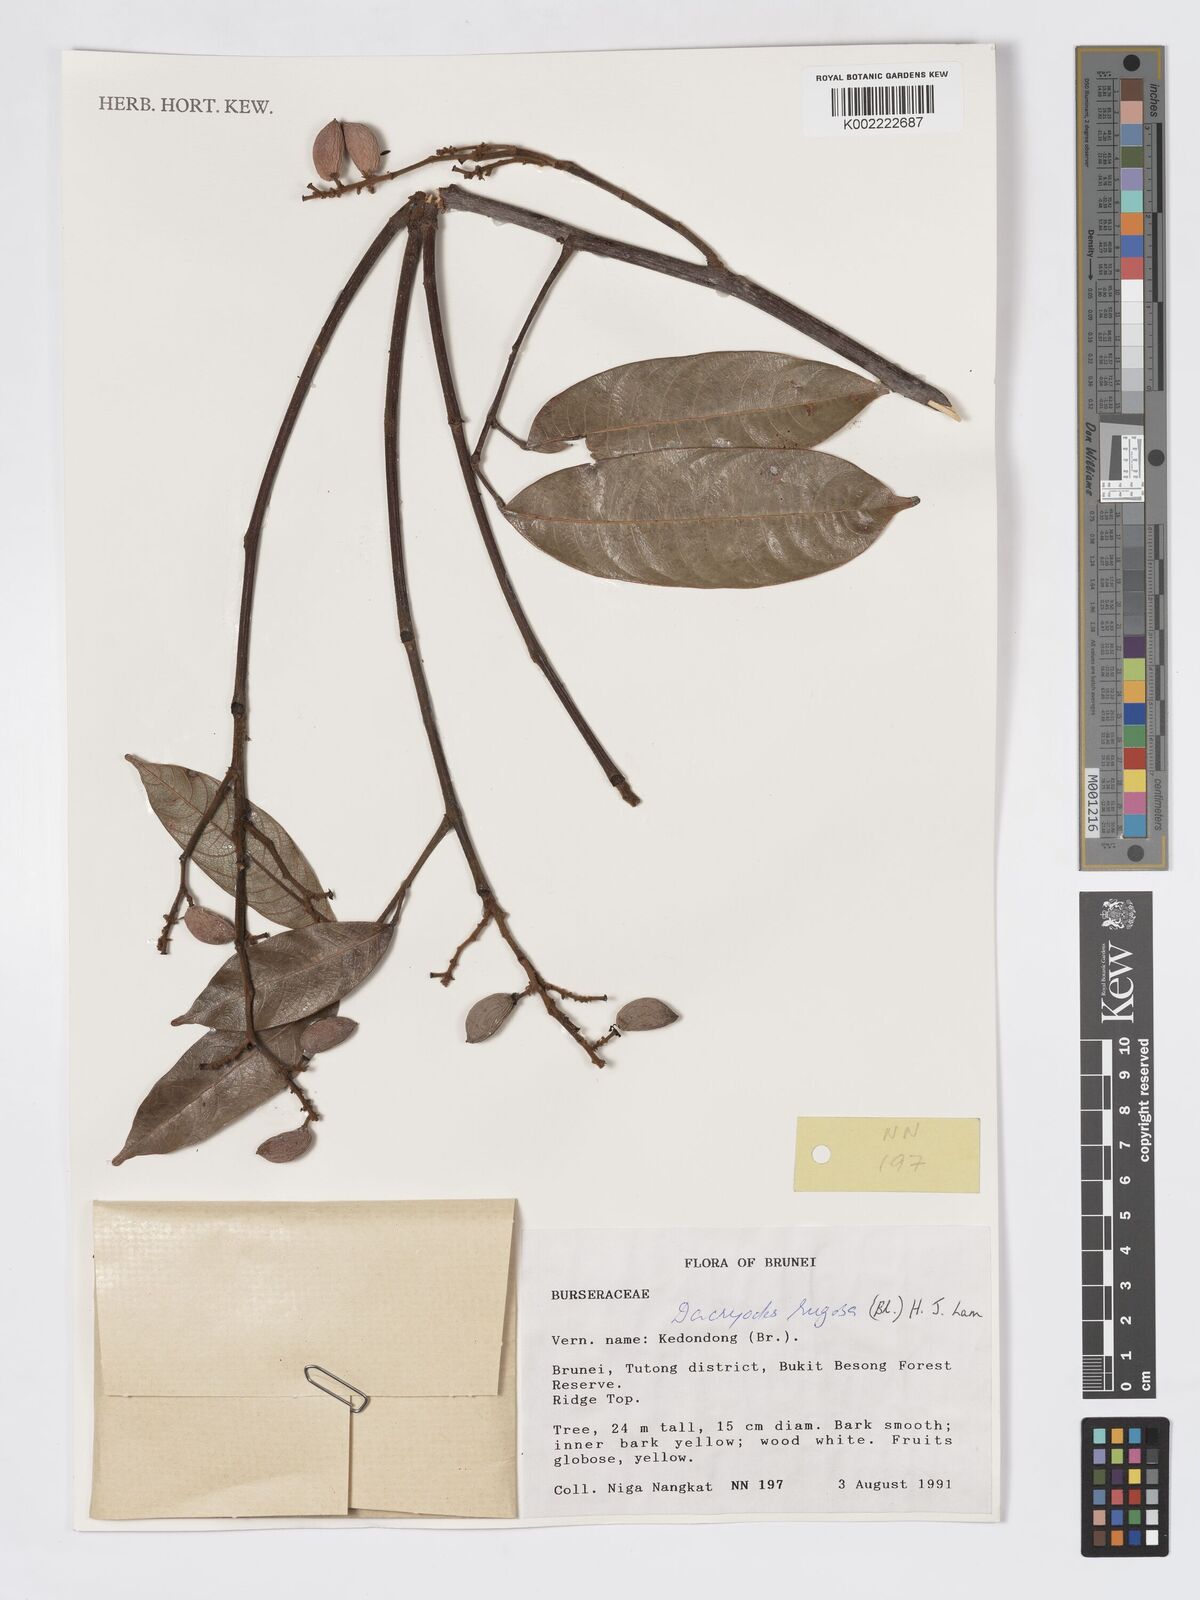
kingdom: Plantae
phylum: Tracheophyta
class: Magnoliopsida
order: Sapindales
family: Burseraceae
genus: Dacryodes
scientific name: Dacryodes rugosa
